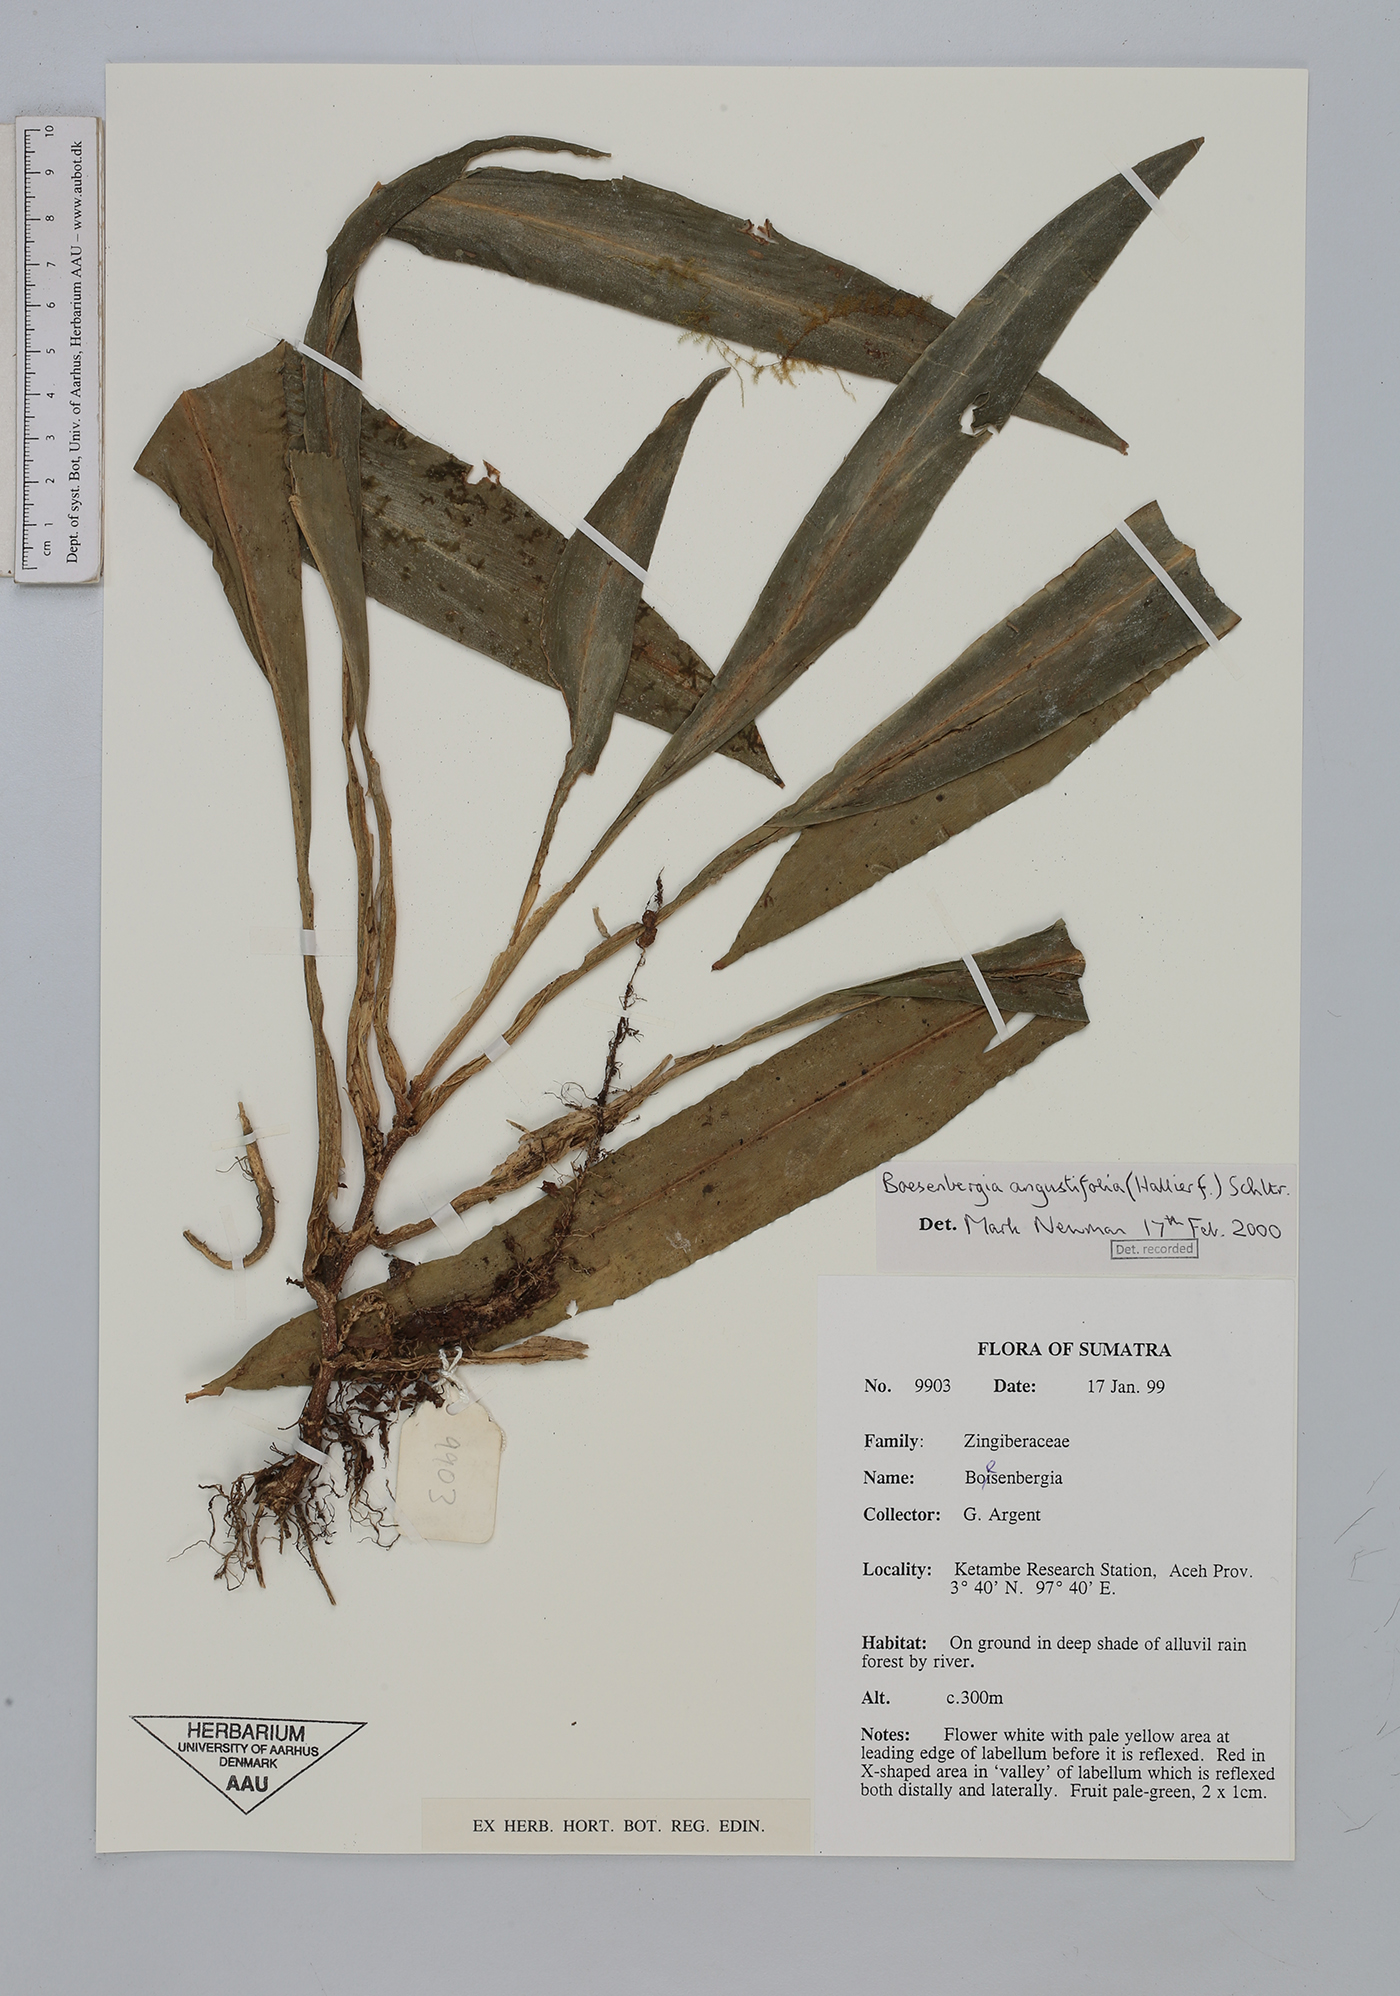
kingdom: Plantae
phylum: Tracheophyta
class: Liliopsida
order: Zingiberales
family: Zingiberaceae
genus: Boesenbergia
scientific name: Boesenbergia angustifolia
